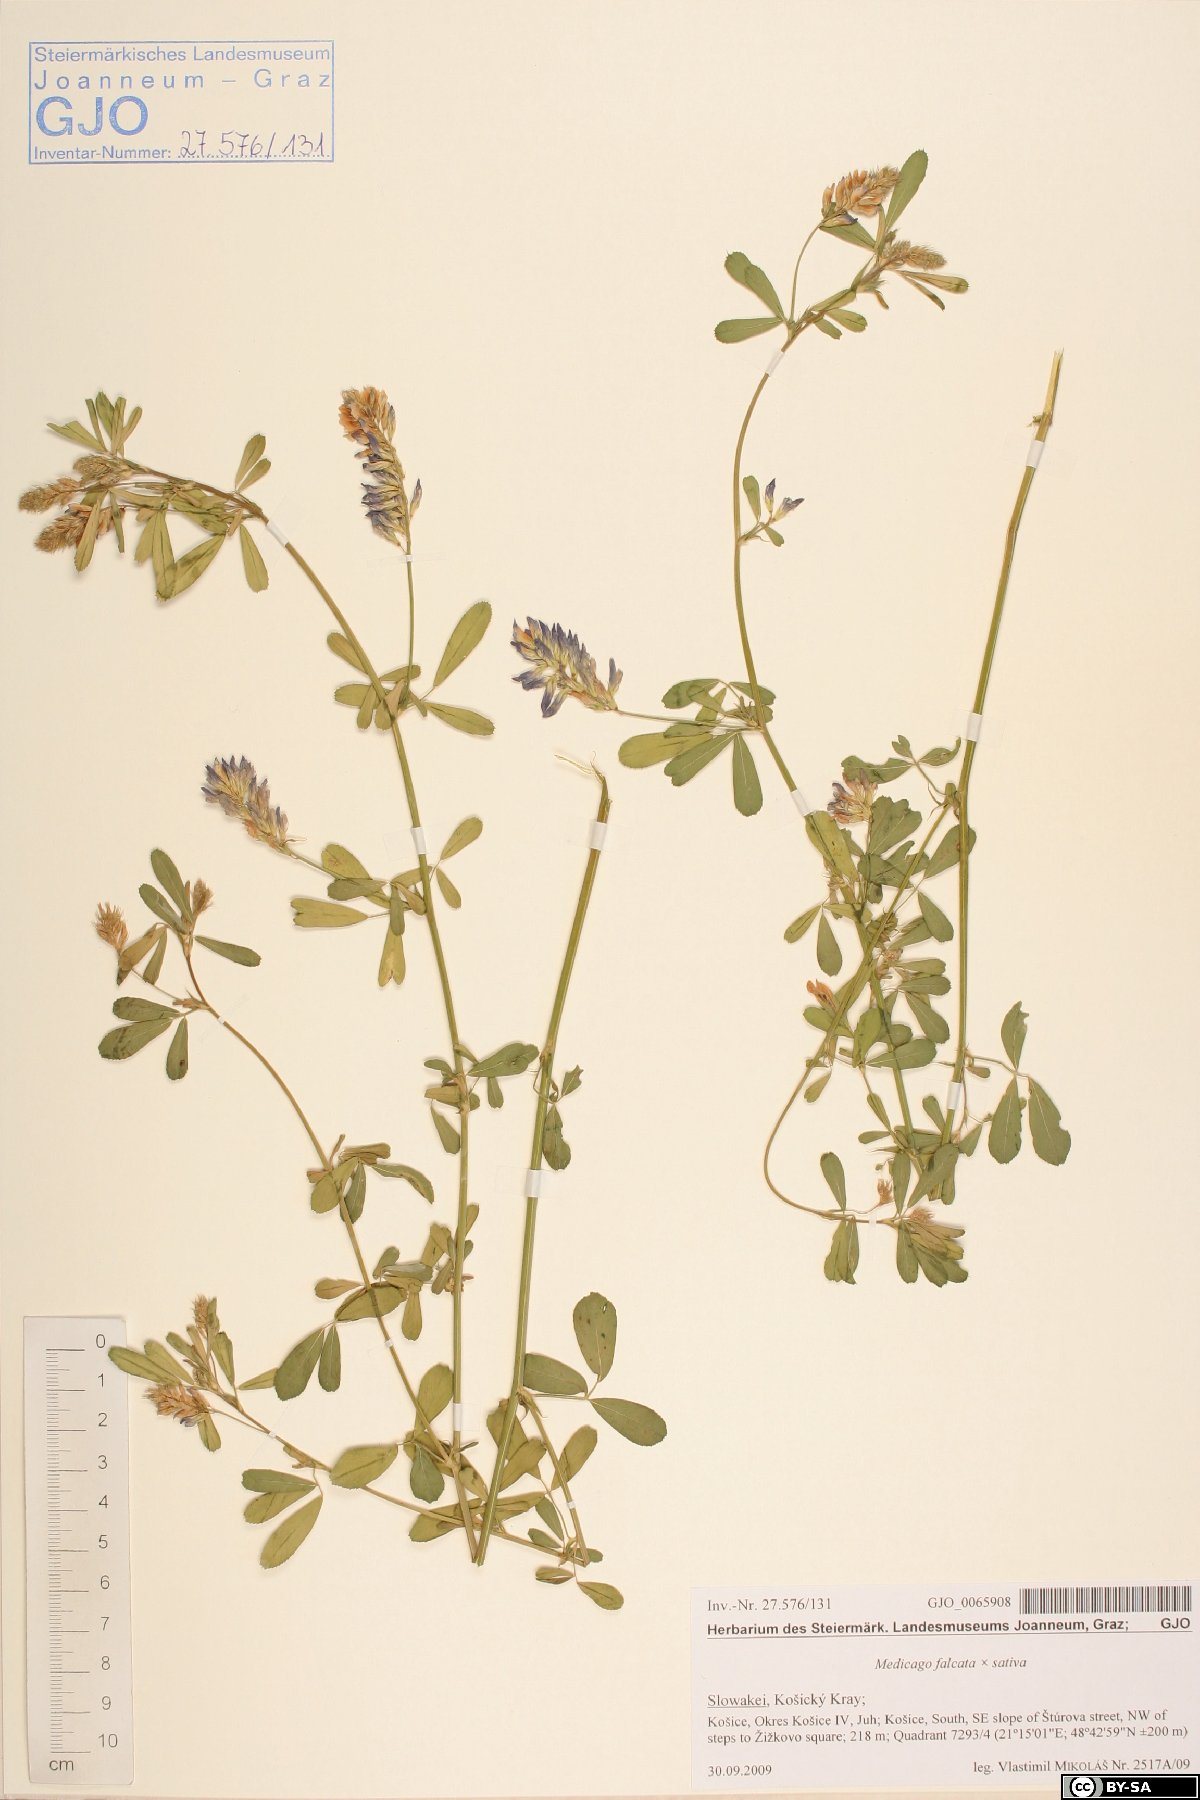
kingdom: Plantae
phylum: Tracheophyta
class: Magnoliopsida
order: Fabales
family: Fabaceae
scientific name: Fabaceae
